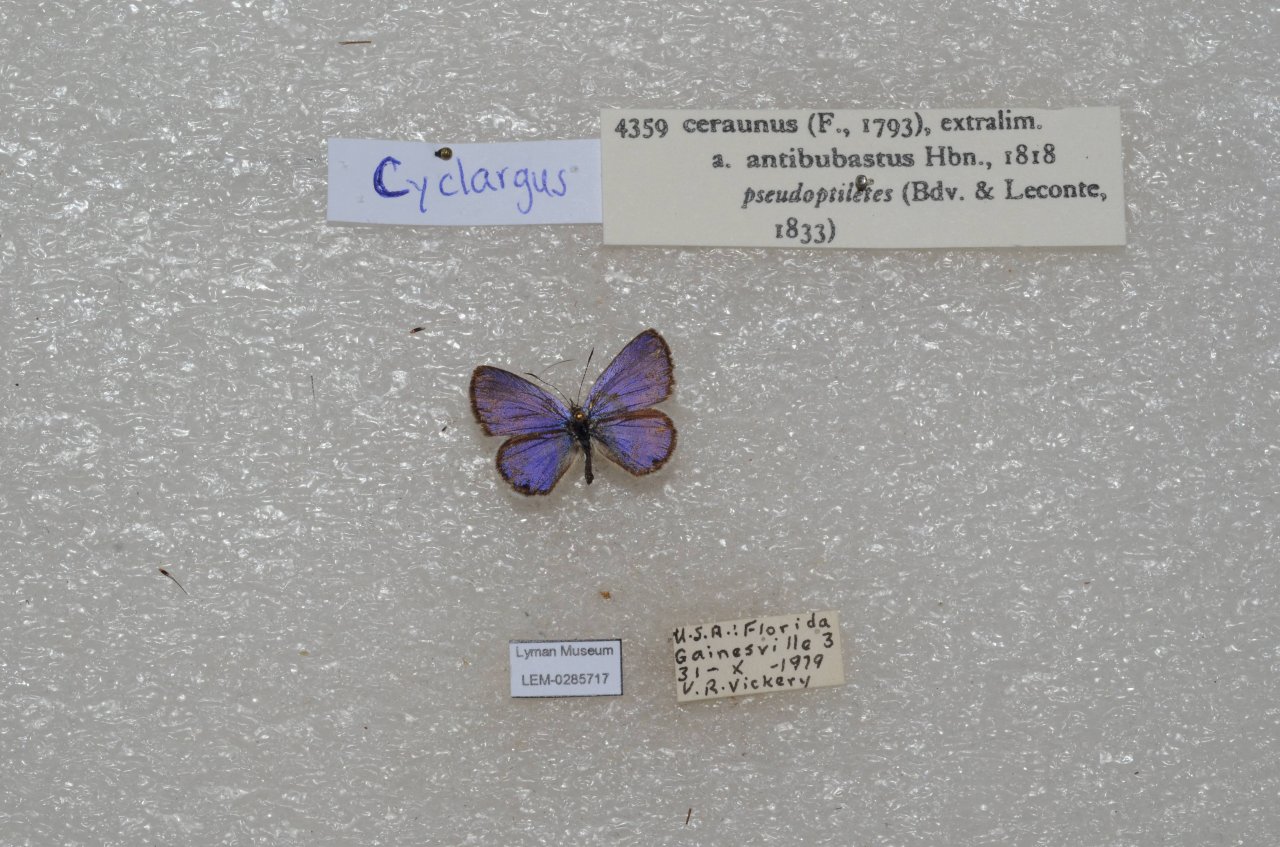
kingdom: Animalia
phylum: Arthropoda
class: Insecta
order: Lepidoptera
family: Lycaenidae
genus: Hemiargus
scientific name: Hemiargus ceraunus
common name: Ceraunus Blue
